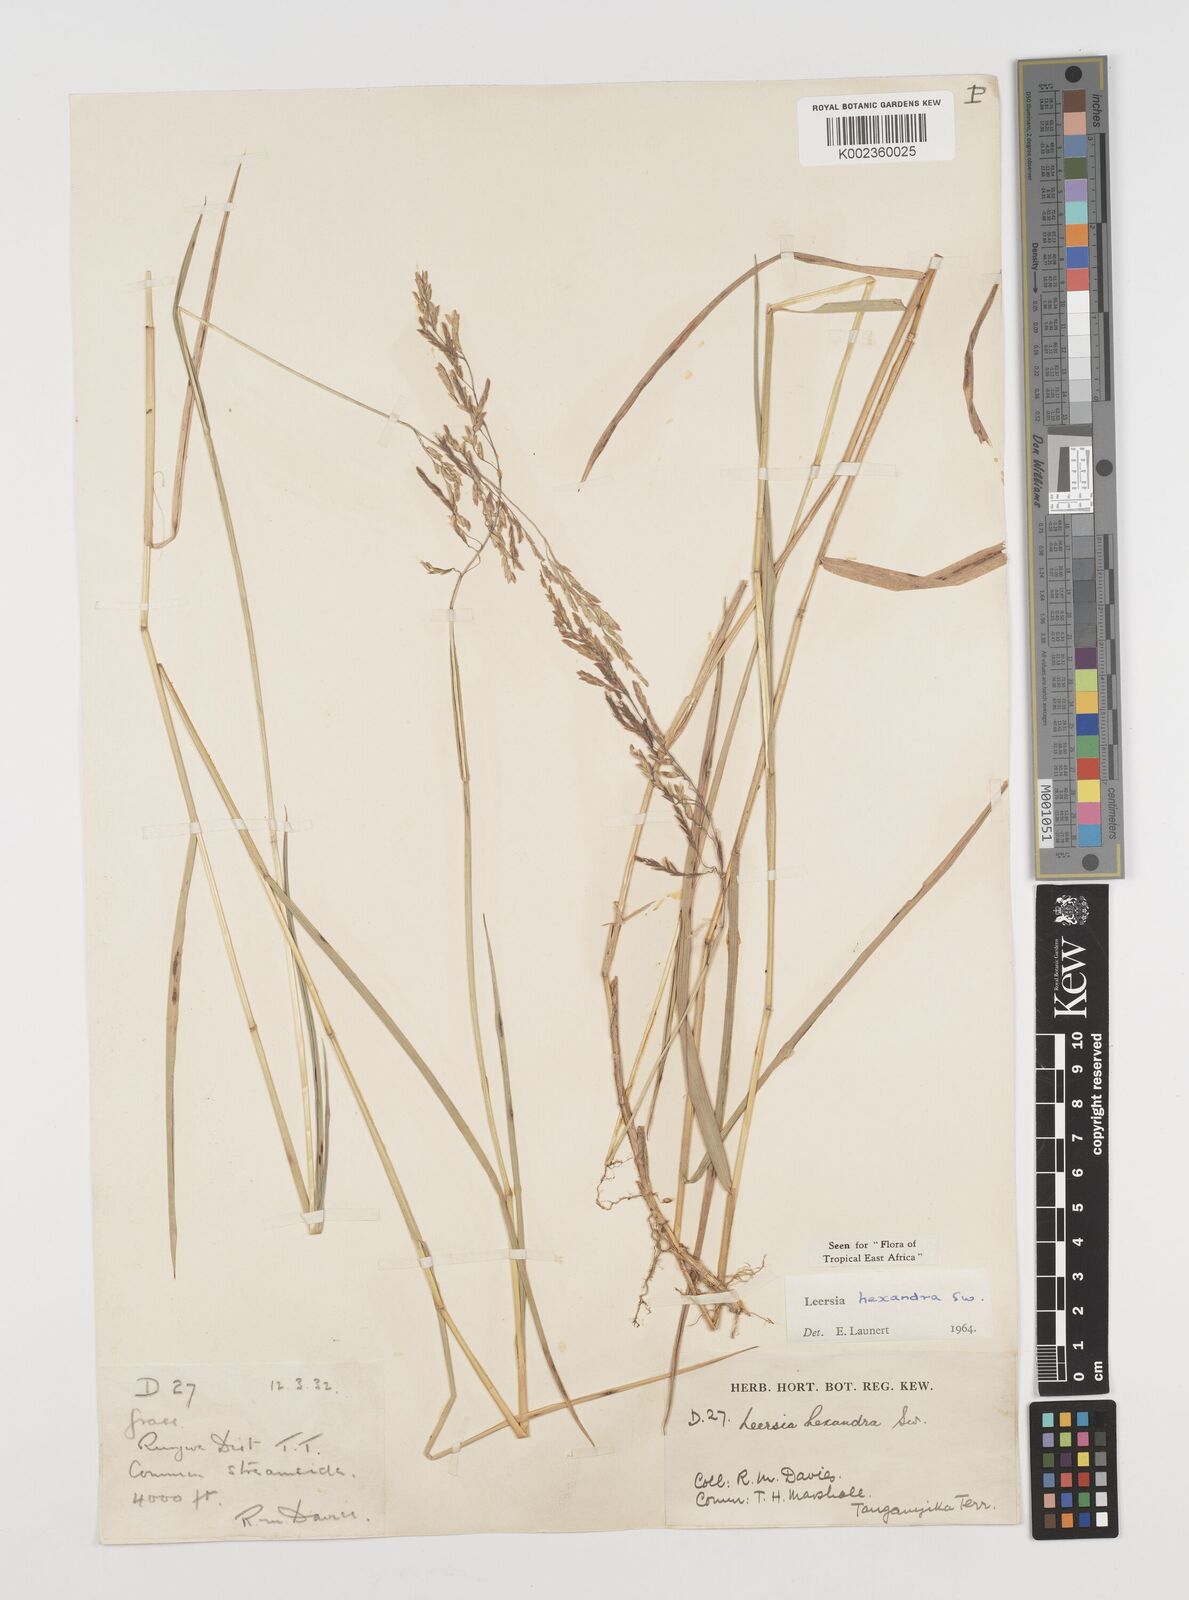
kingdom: Plantae
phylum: Tracheophyta
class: Liliopsida
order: Poales
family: Poaceae
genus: Leersia
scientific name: Leersia hexandra
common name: Southern cut grass
